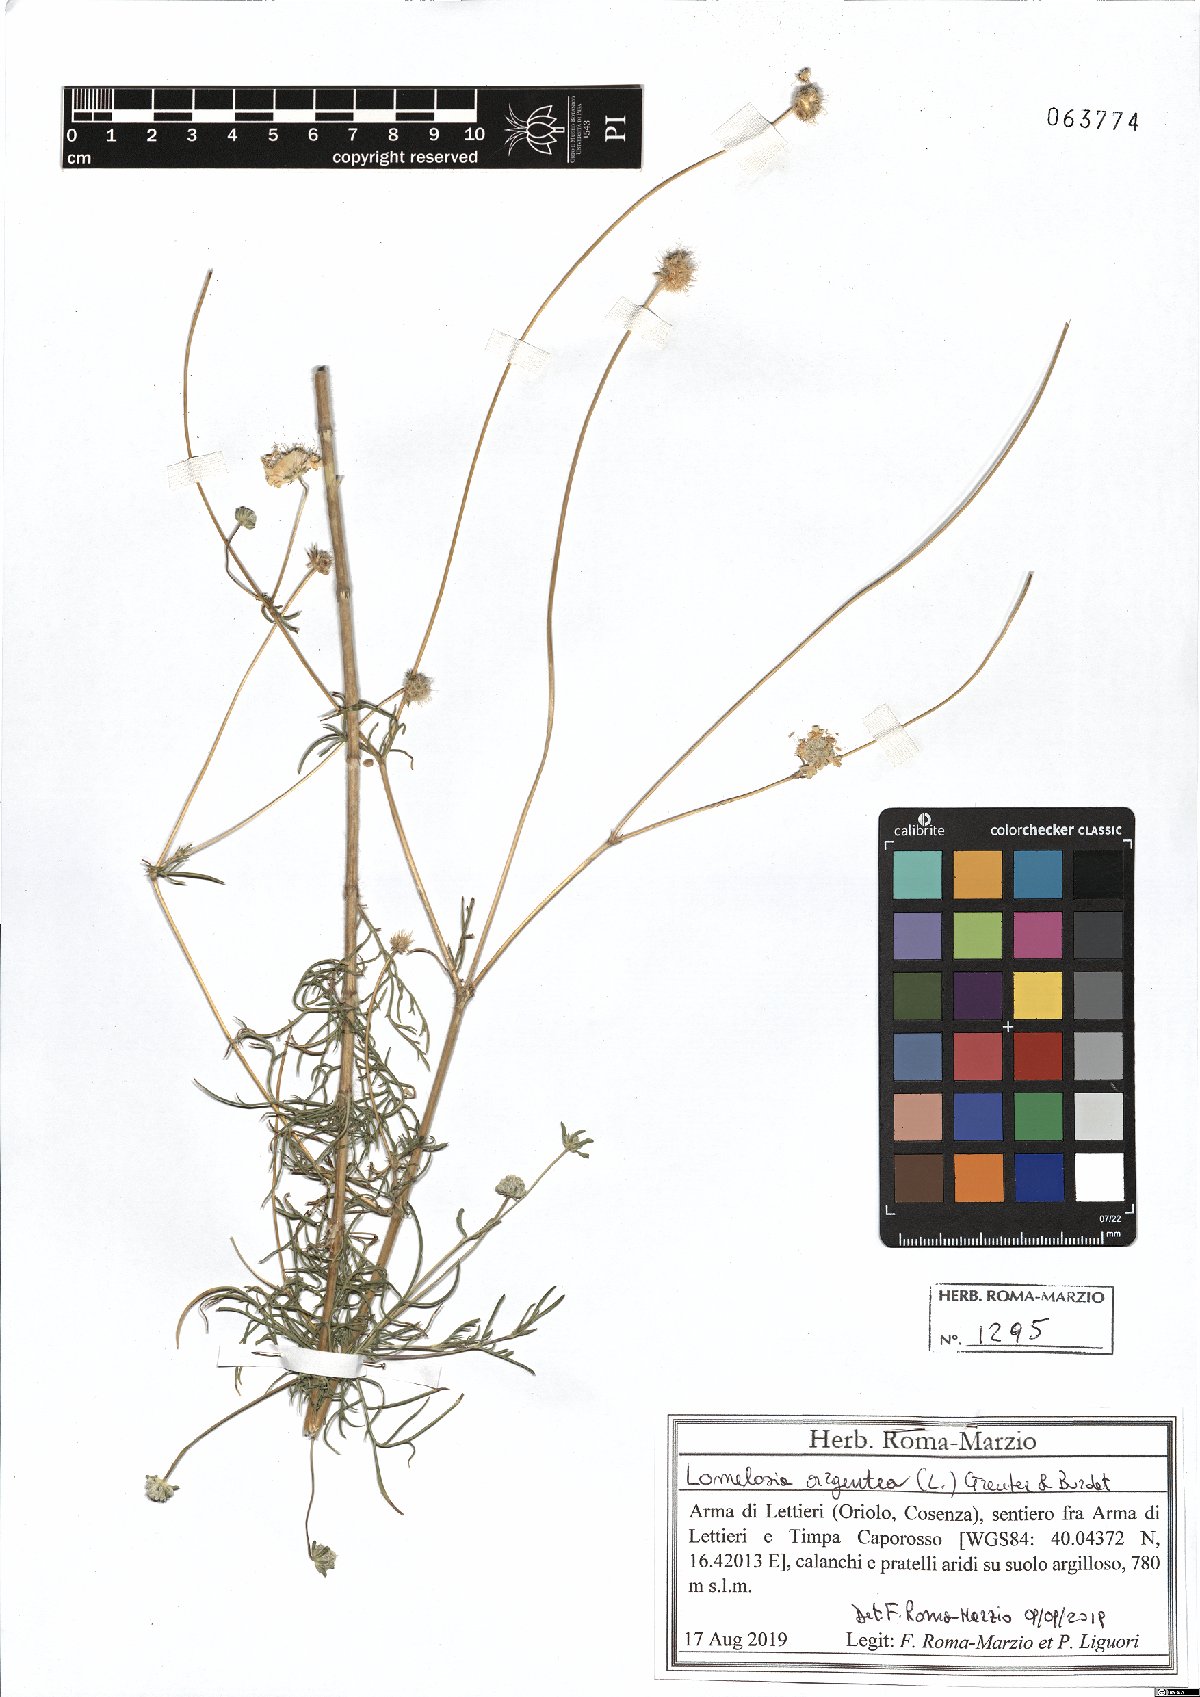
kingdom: Plantae
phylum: Tracheophyta
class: Magnoliopsida
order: Dipsacales
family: Caprifoliaceae
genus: Lomelosia
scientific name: Lomelosia argentea
